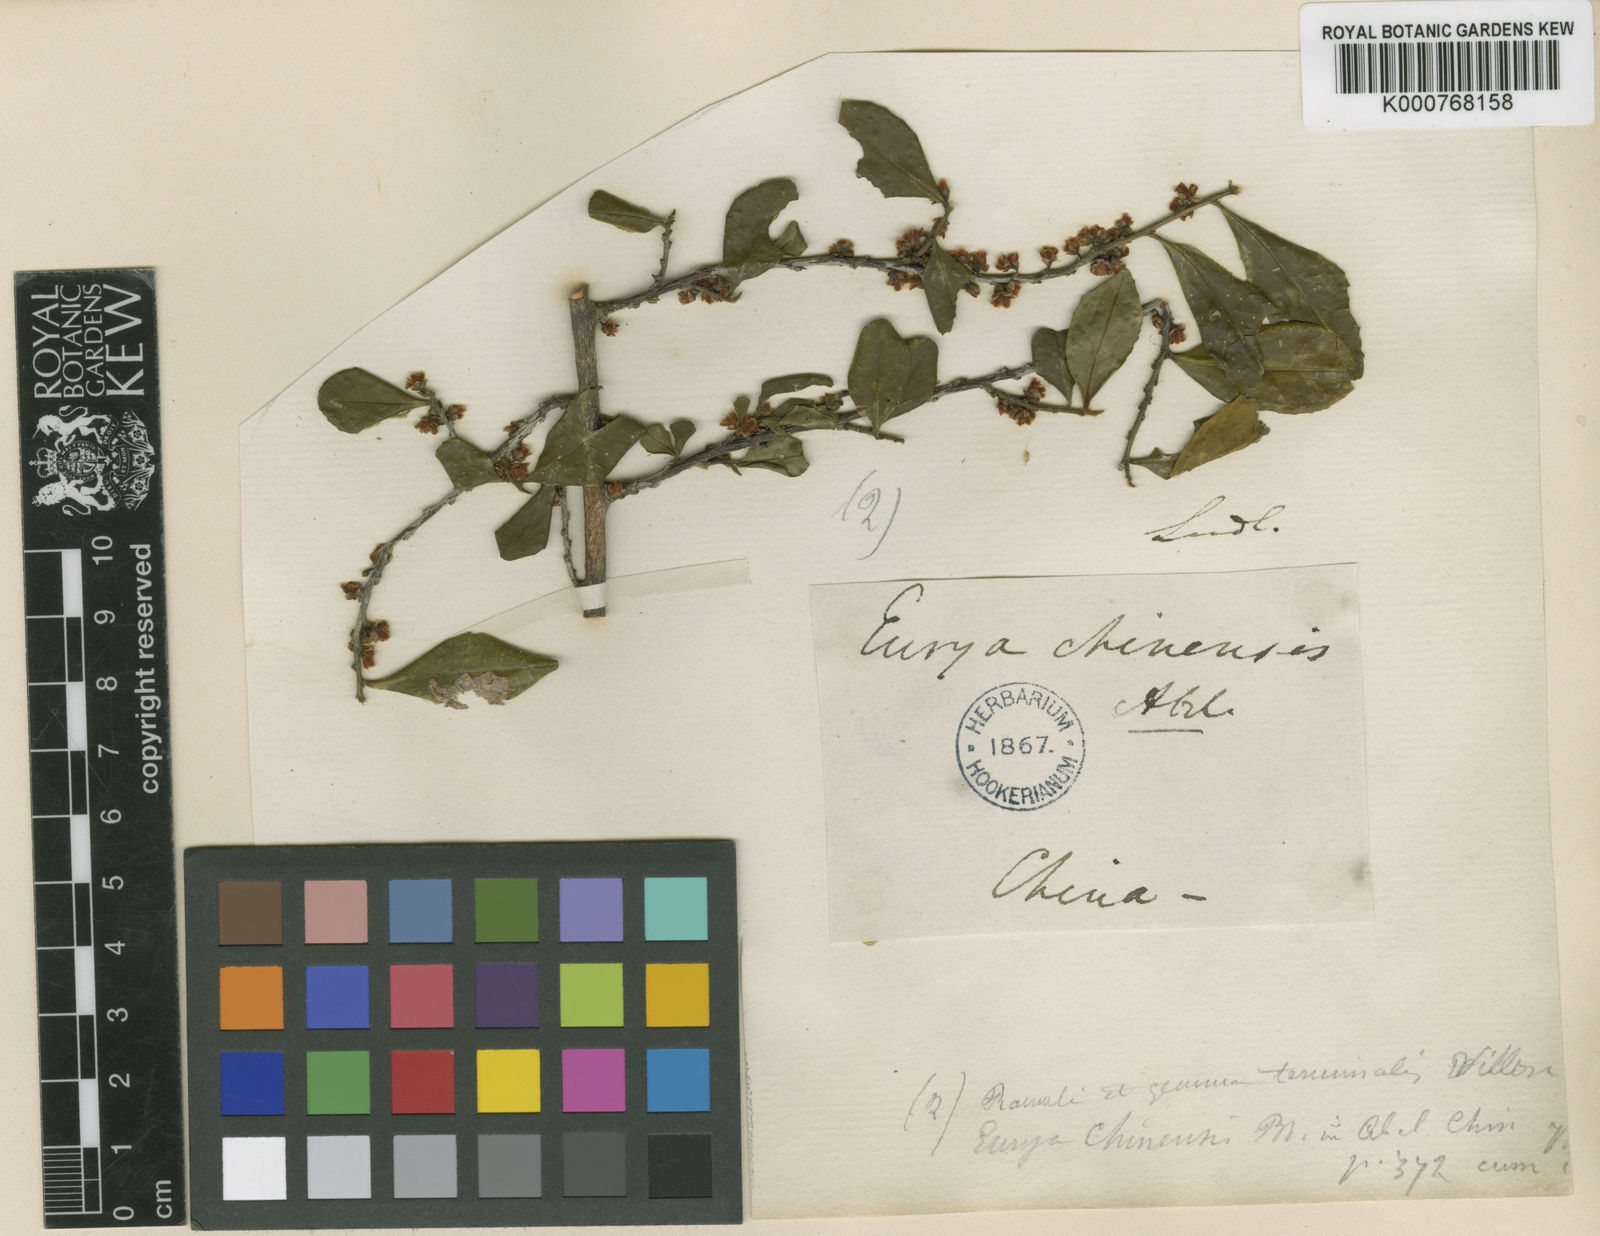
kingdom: Plantae
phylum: Tracheophyta
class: Magnoliopsida
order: Ericales
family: Pentaphylacaceae
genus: Eurya
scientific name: Eurya chinensis
